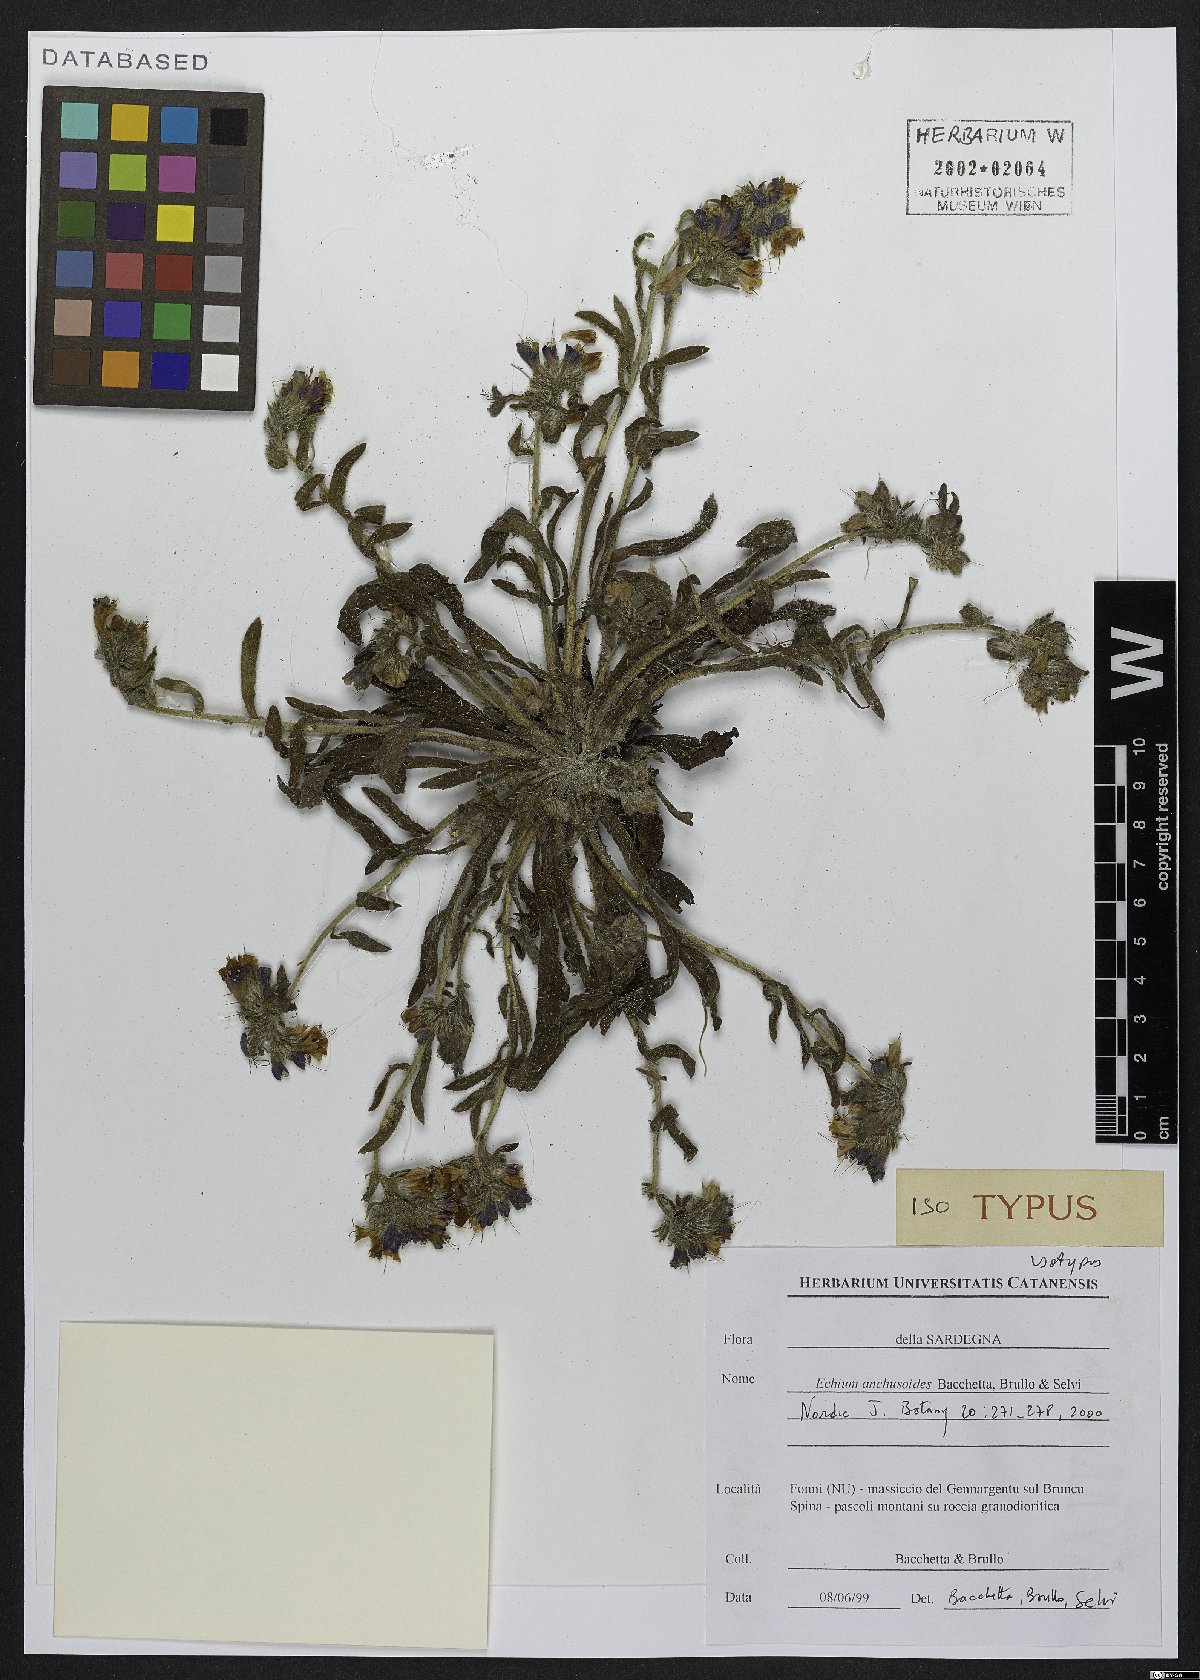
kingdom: Plantae
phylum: Tracheophyta
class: Magnoliopsida
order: Boraginales
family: Boraginaceae
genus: Echium
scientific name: Echium anchusoides
